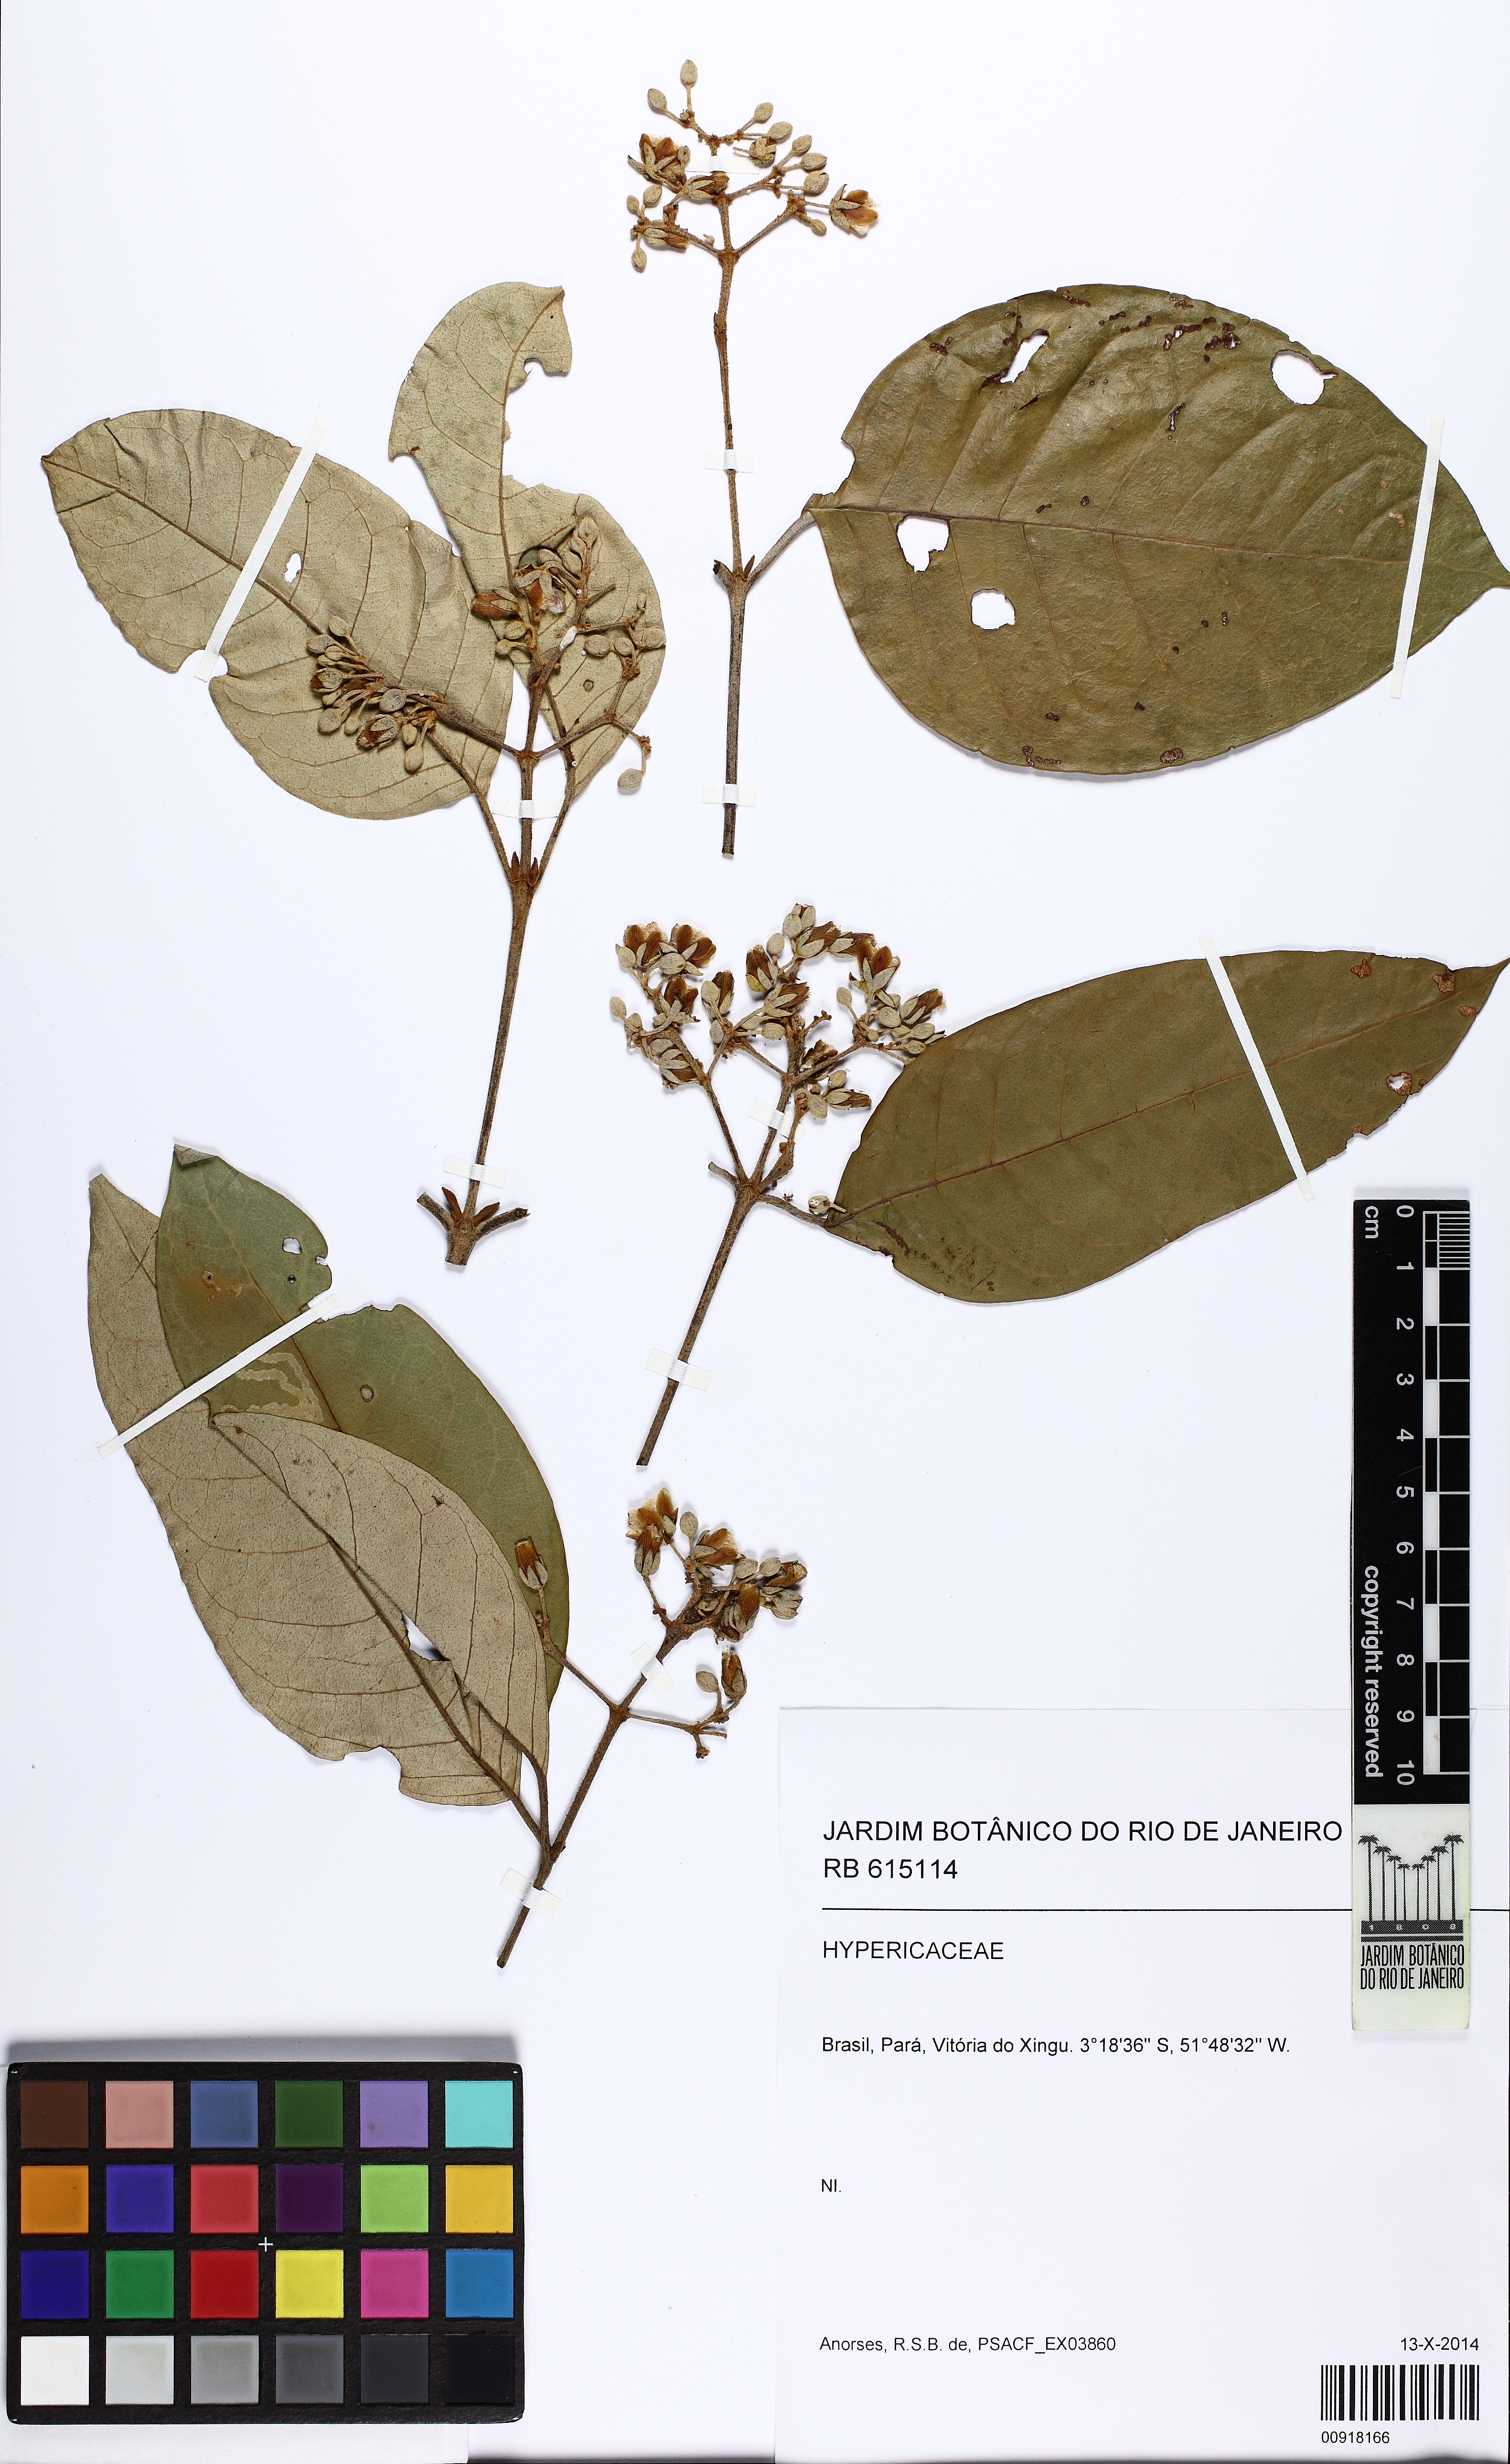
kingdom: Plantae
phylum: Tracheophyta
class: Magnoliopsida
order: Malpighiales
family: Hypericaceae
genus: Vismia
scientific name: Vismia gracilis
